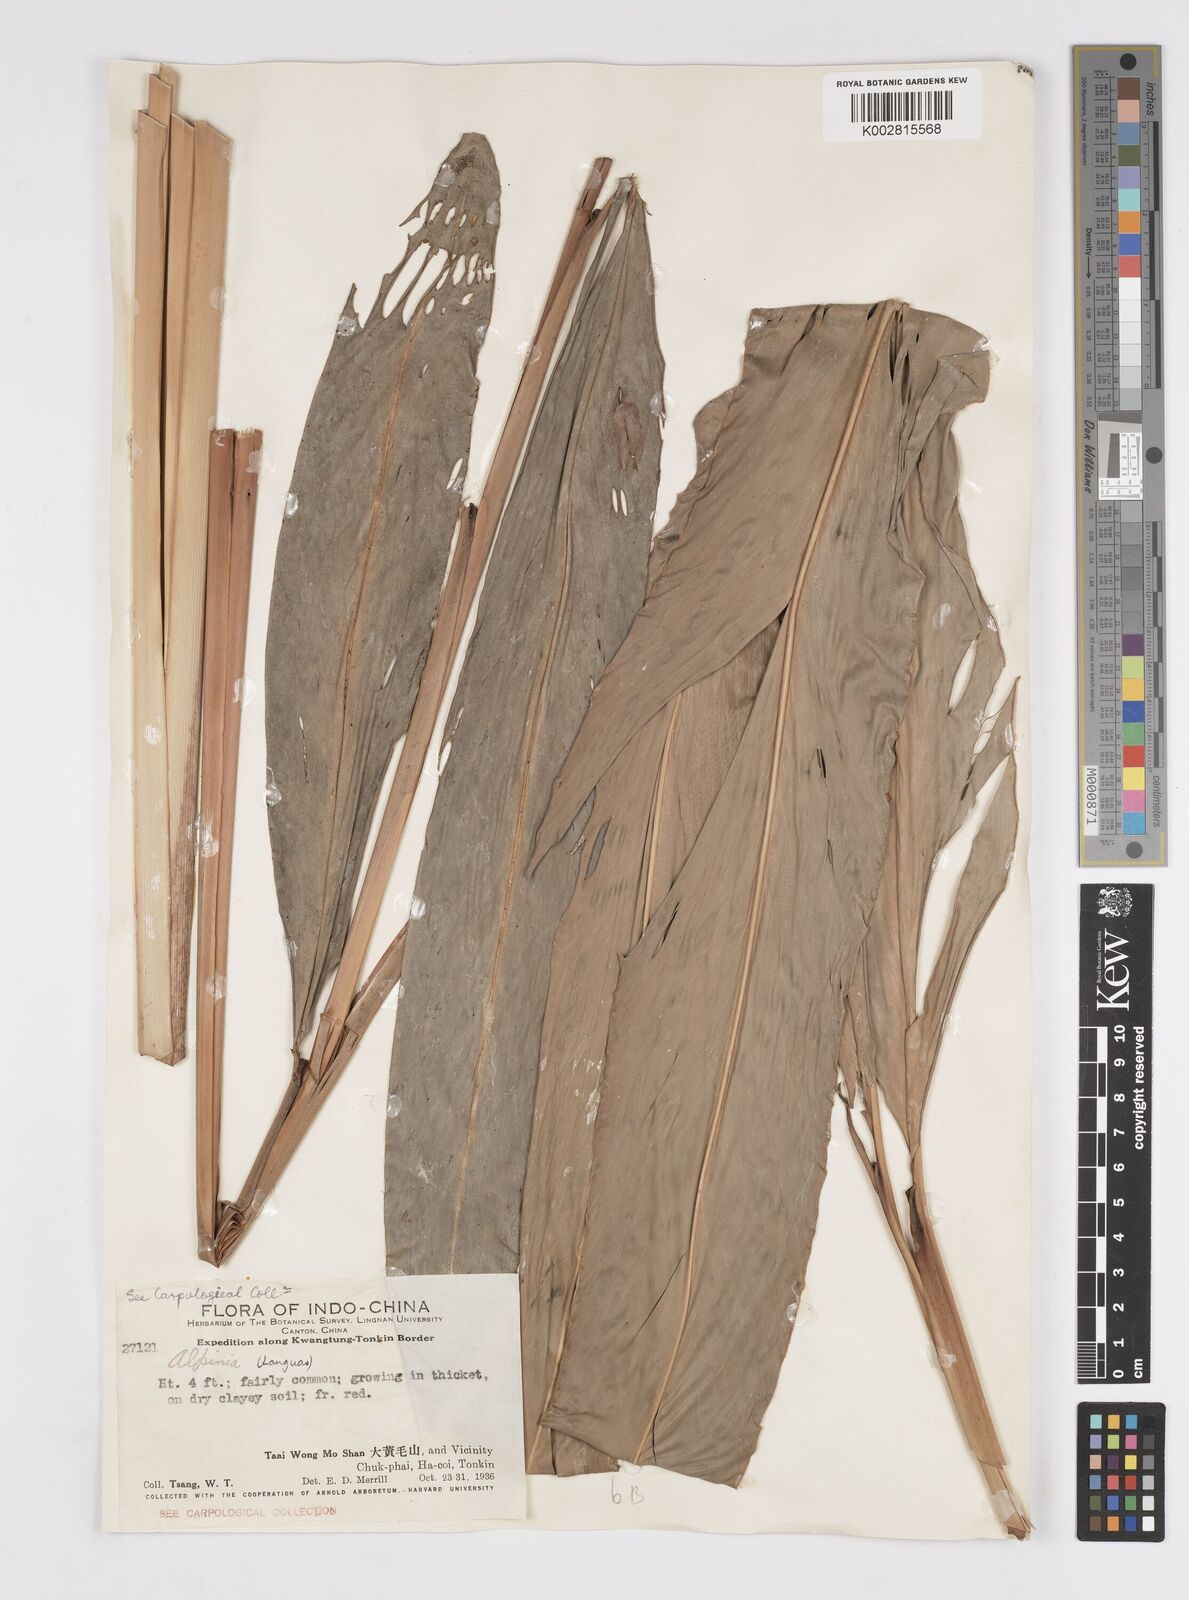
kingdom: Plantae
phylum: Tracheophyta
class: Liliopsida
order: Zingiberales
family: Zingiberaceae
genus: Alpinia
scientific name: Alpinia
